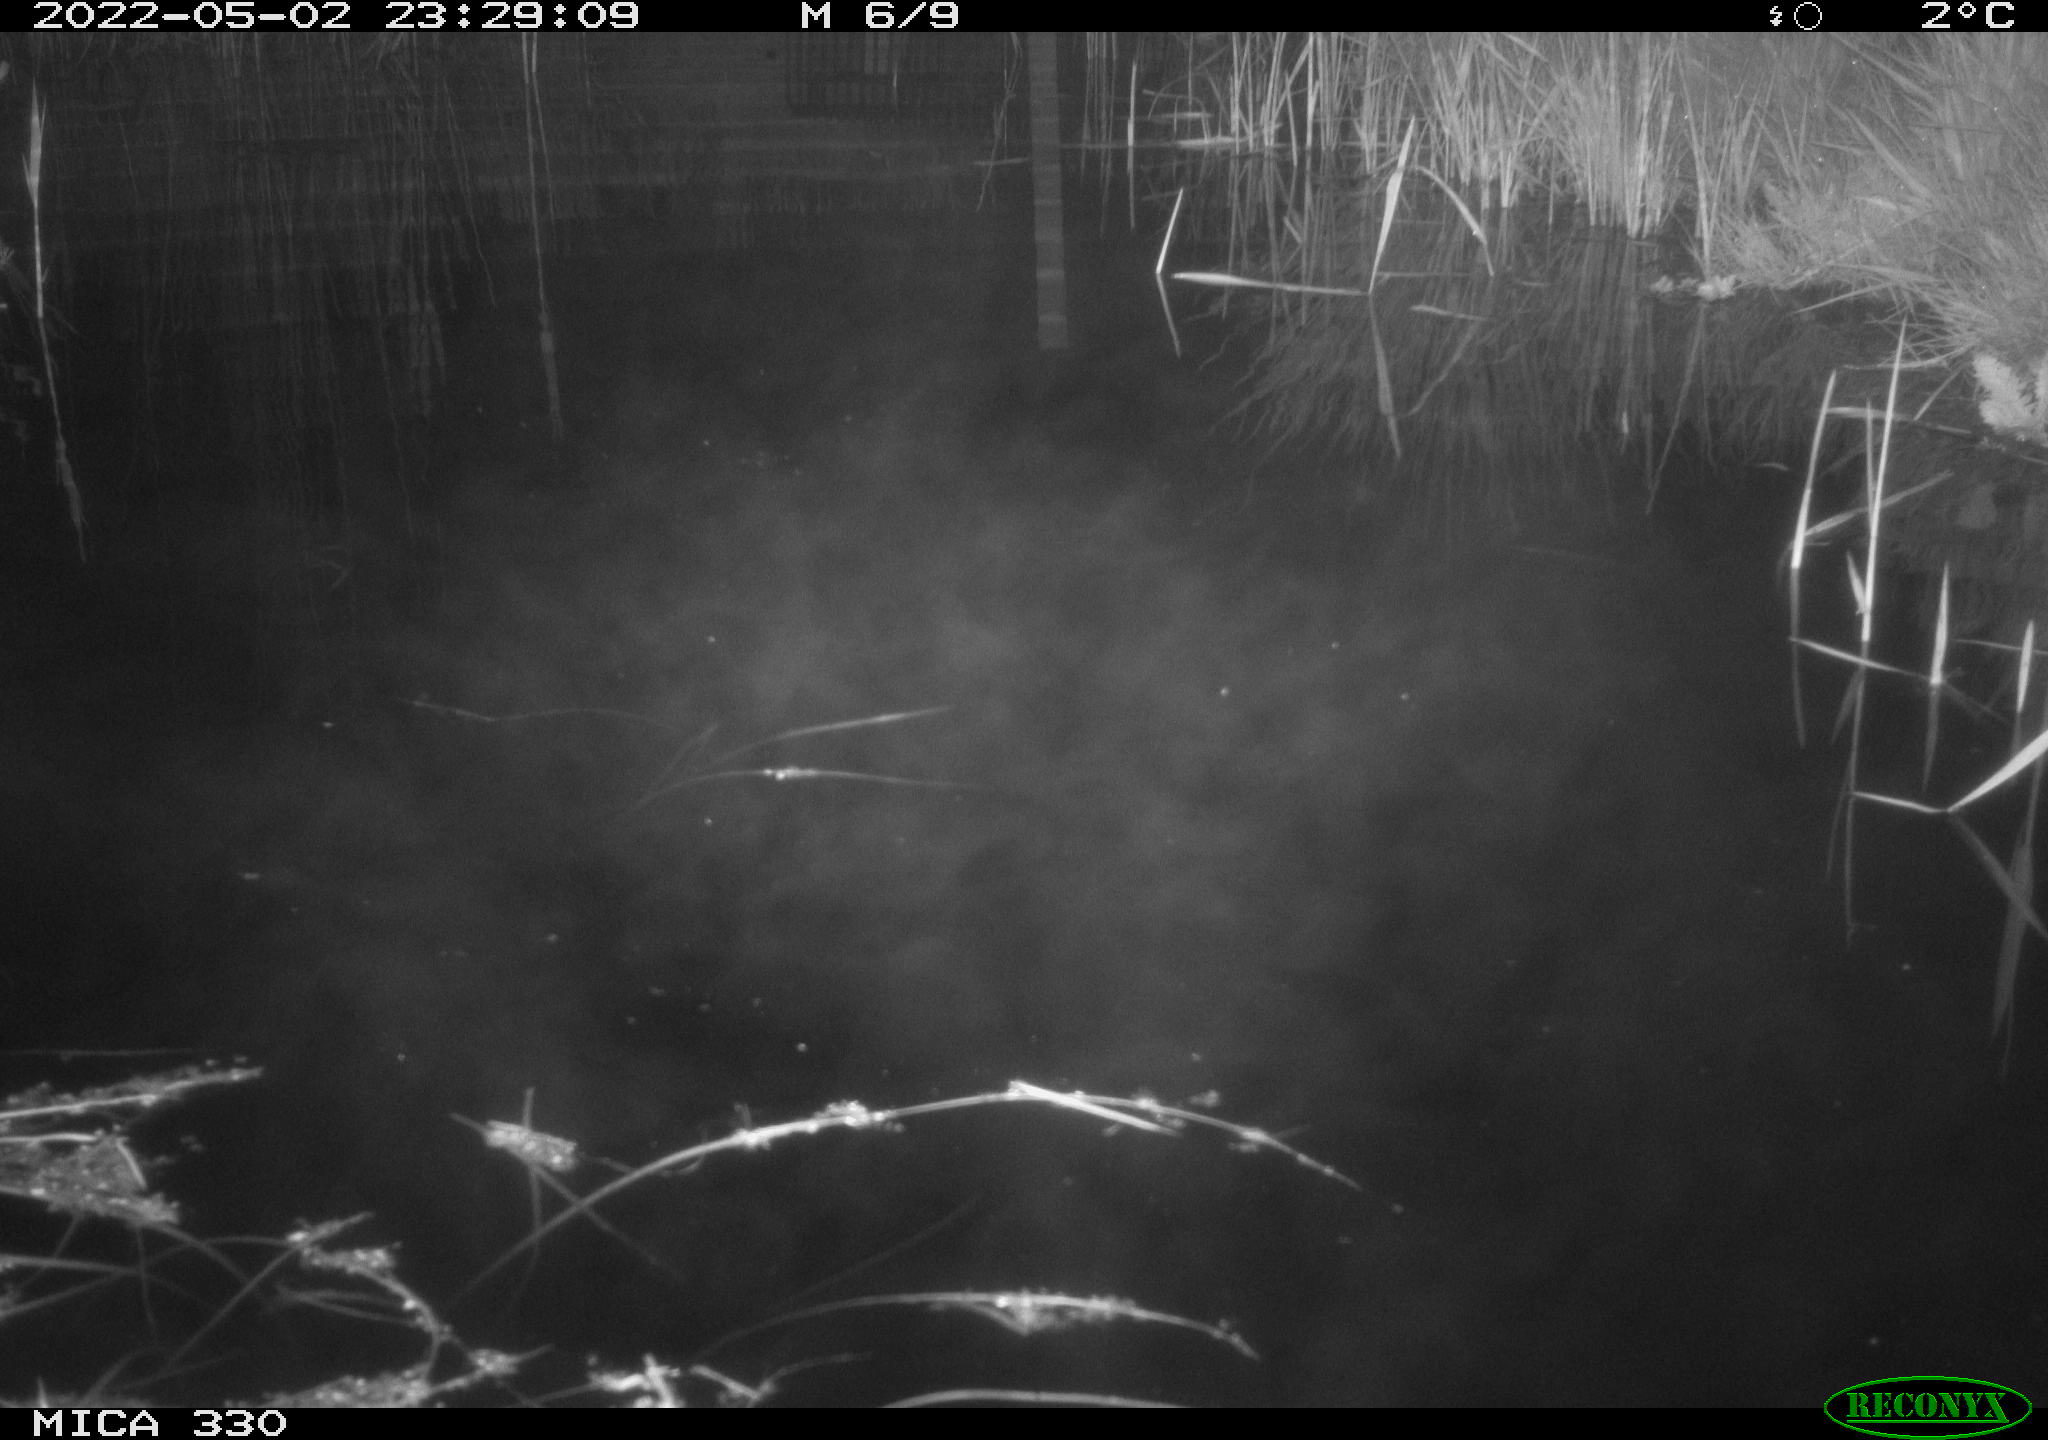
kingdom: Animalia
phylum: Chordata
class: Aves
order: Anseriformes
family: Anatidae
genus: Anas
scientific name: Anas platyrhynchos
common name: Mallard
